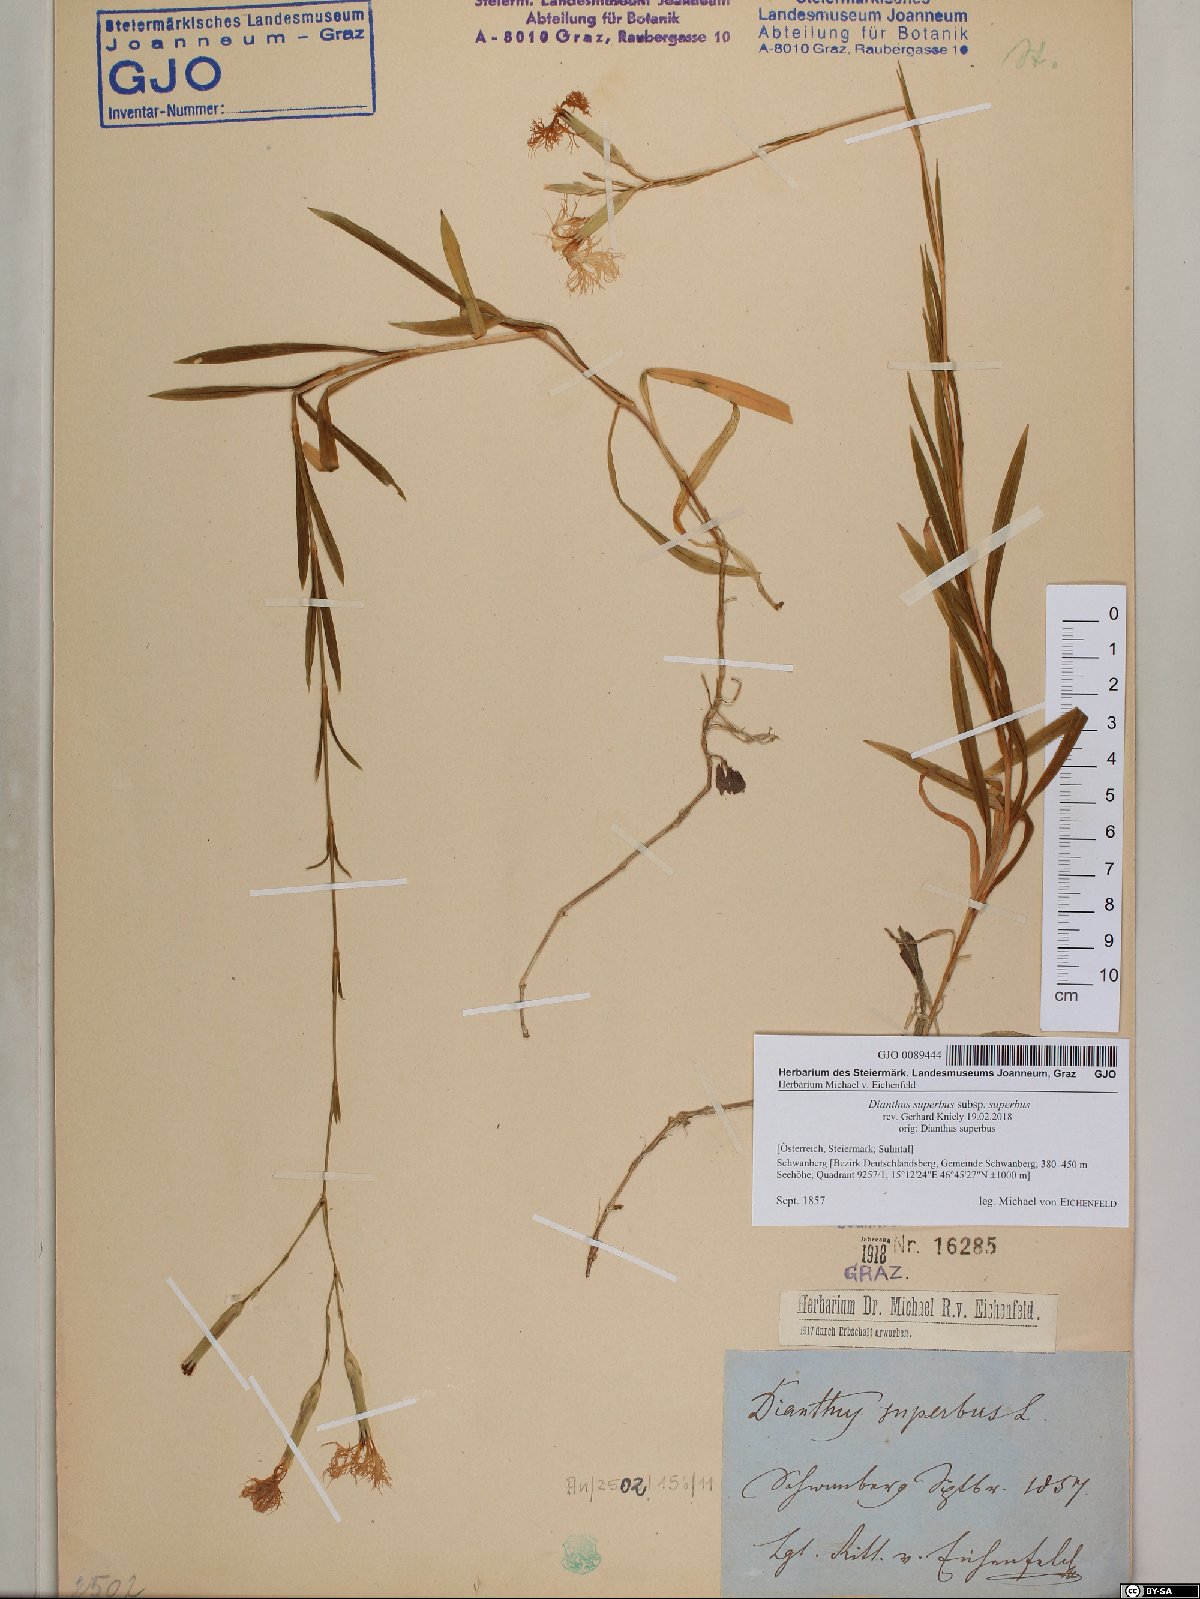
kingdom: Plantae
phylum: Tracheophyta
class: Magnoliopsida
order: Caryophyllales
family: Caryophyllaceae
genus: Dianthus
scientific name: Dianthus superbus
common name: Fringed pink
